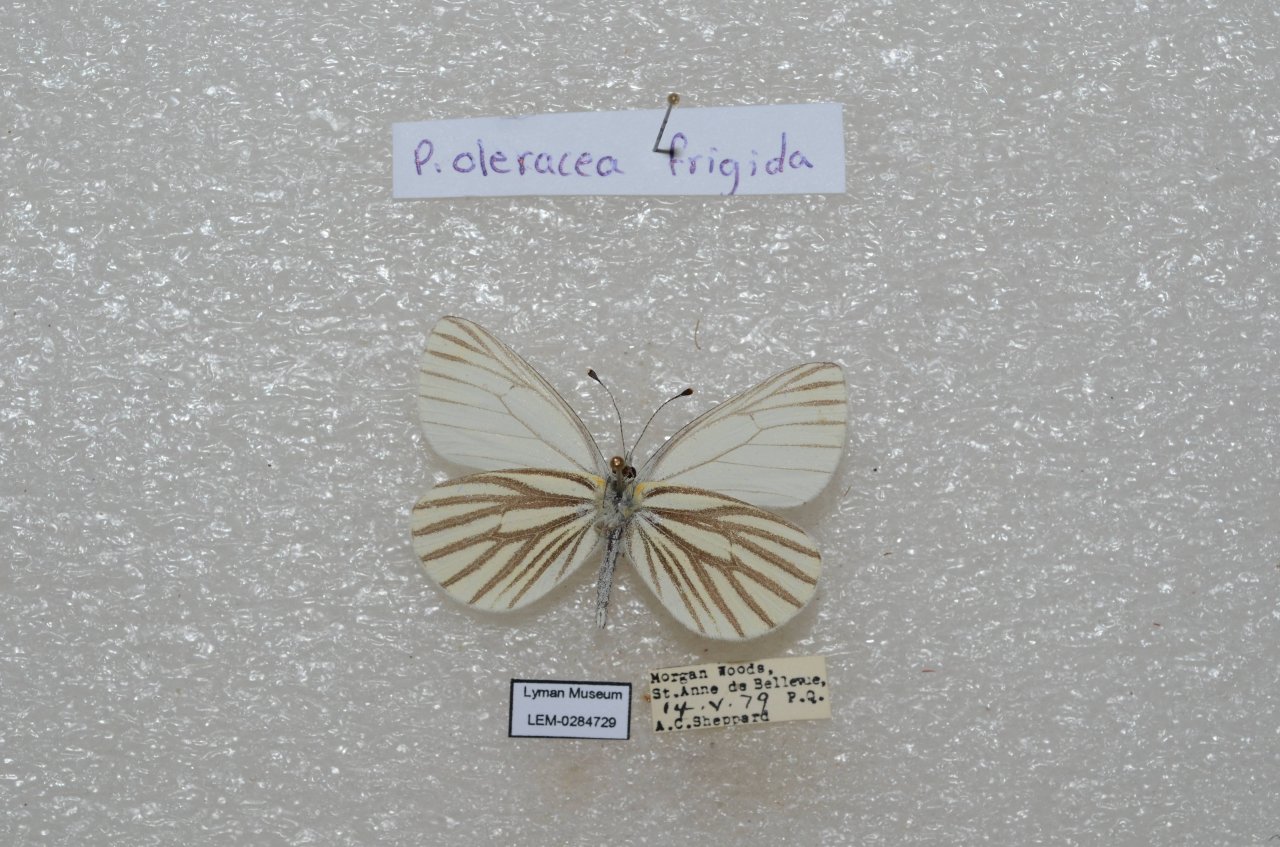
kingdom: Animalia
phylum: Arthropoda
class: Insecta
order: Lepidoptera
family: Pieridae
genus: Pieris
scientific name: Pieris oleracea
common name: Mustard White
